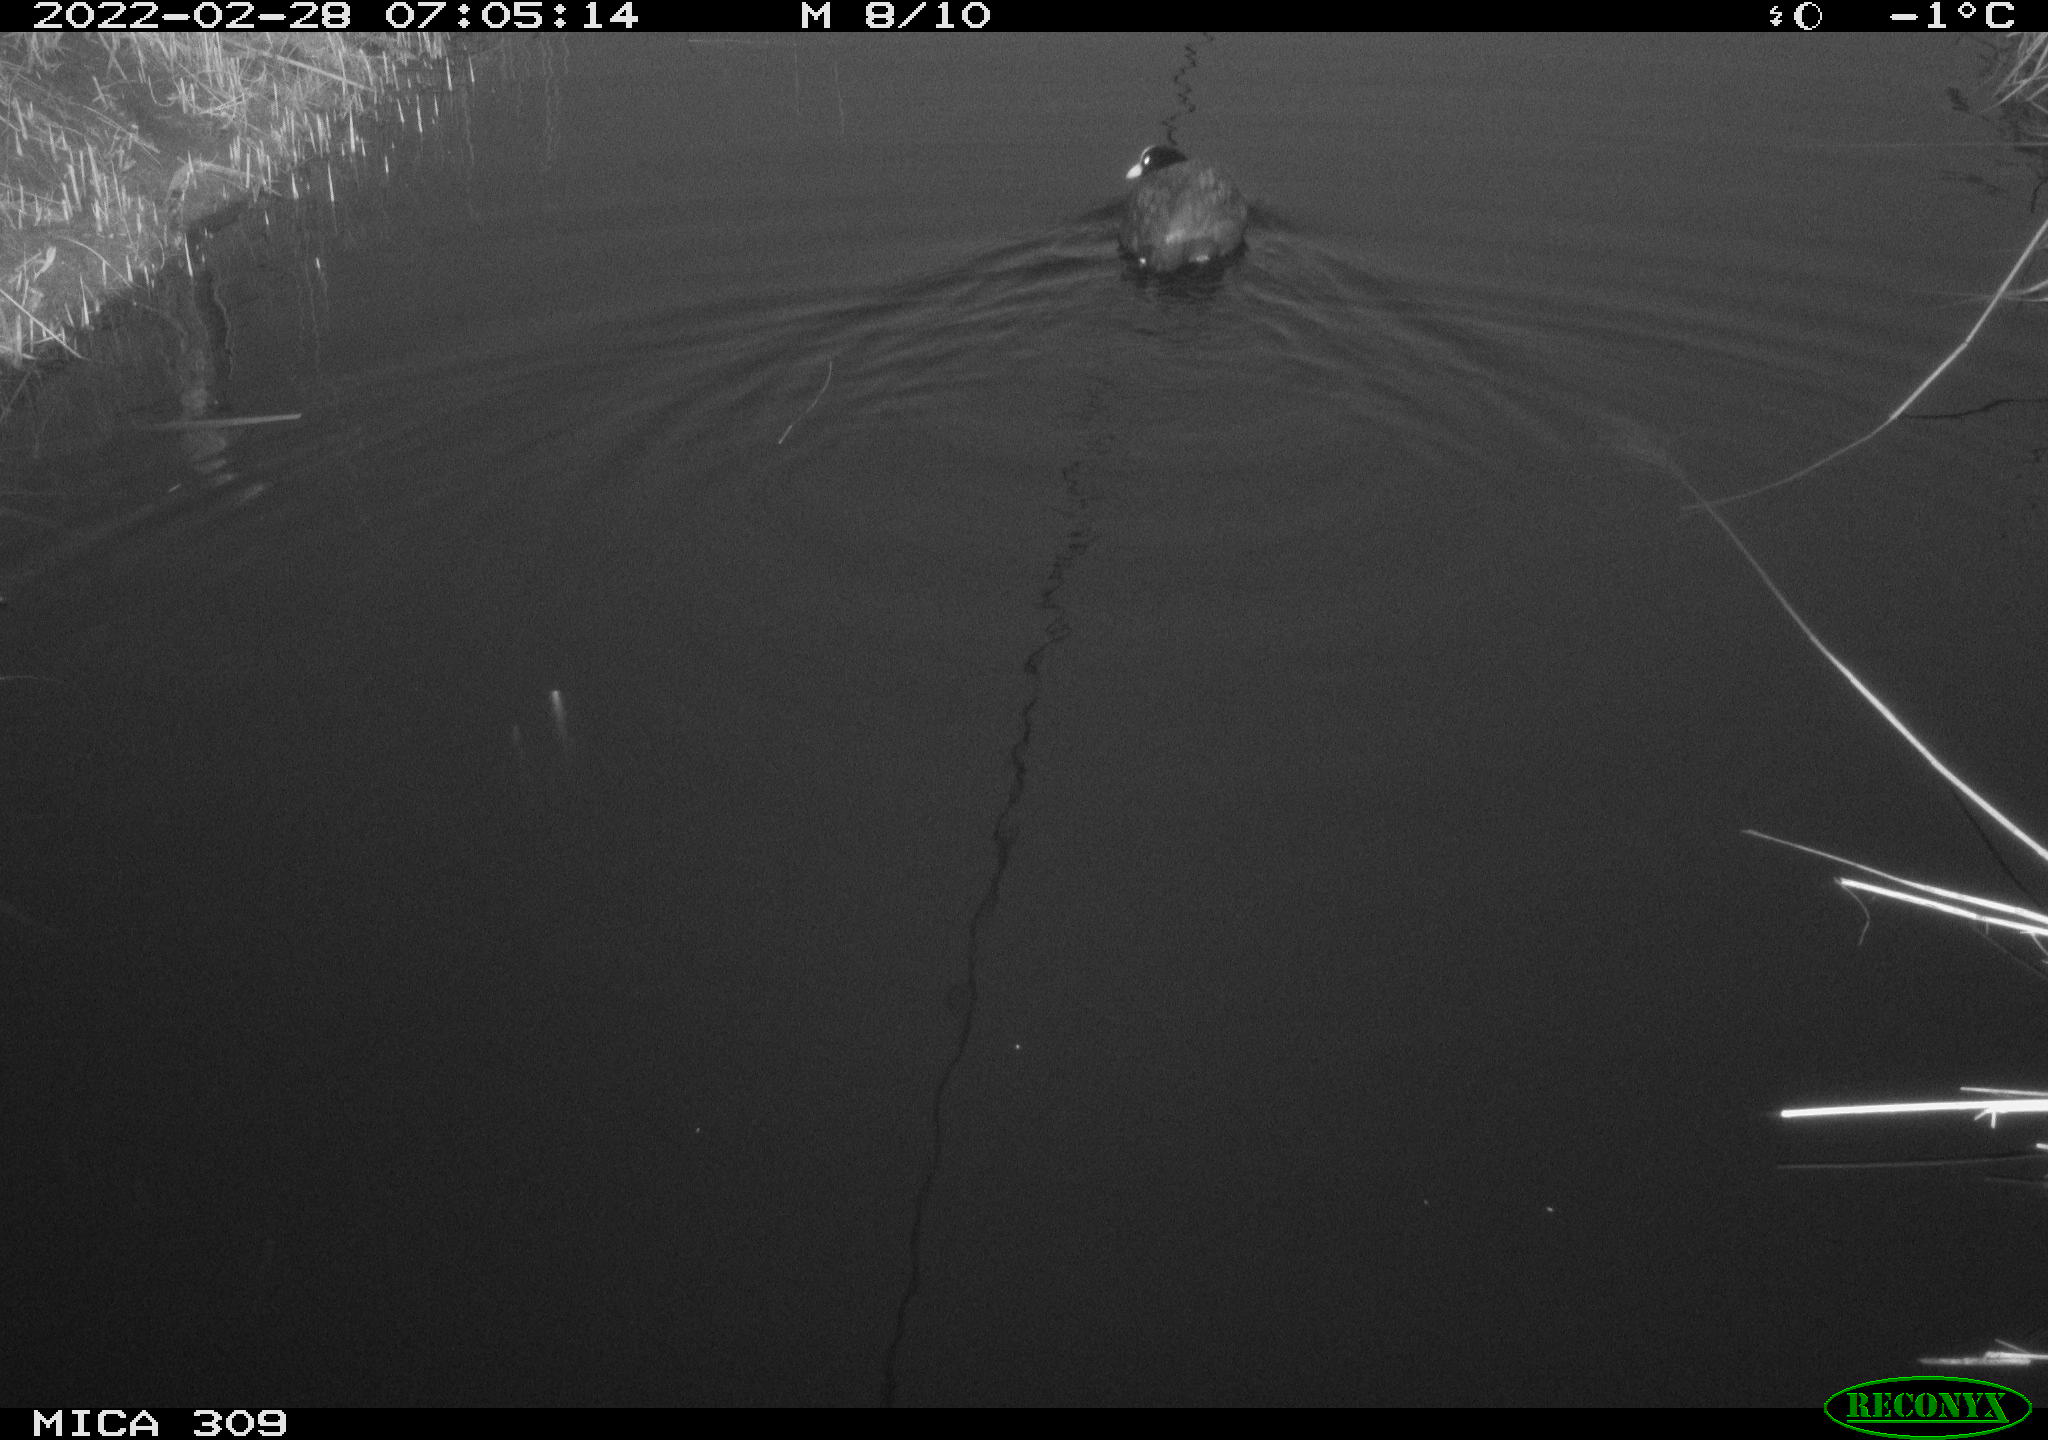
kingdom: Animalia
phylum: Chordata
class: Aves
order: Gruiformes
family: Rallidae
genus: Fulica
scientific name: Fulica atra
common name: Eurasian coot
